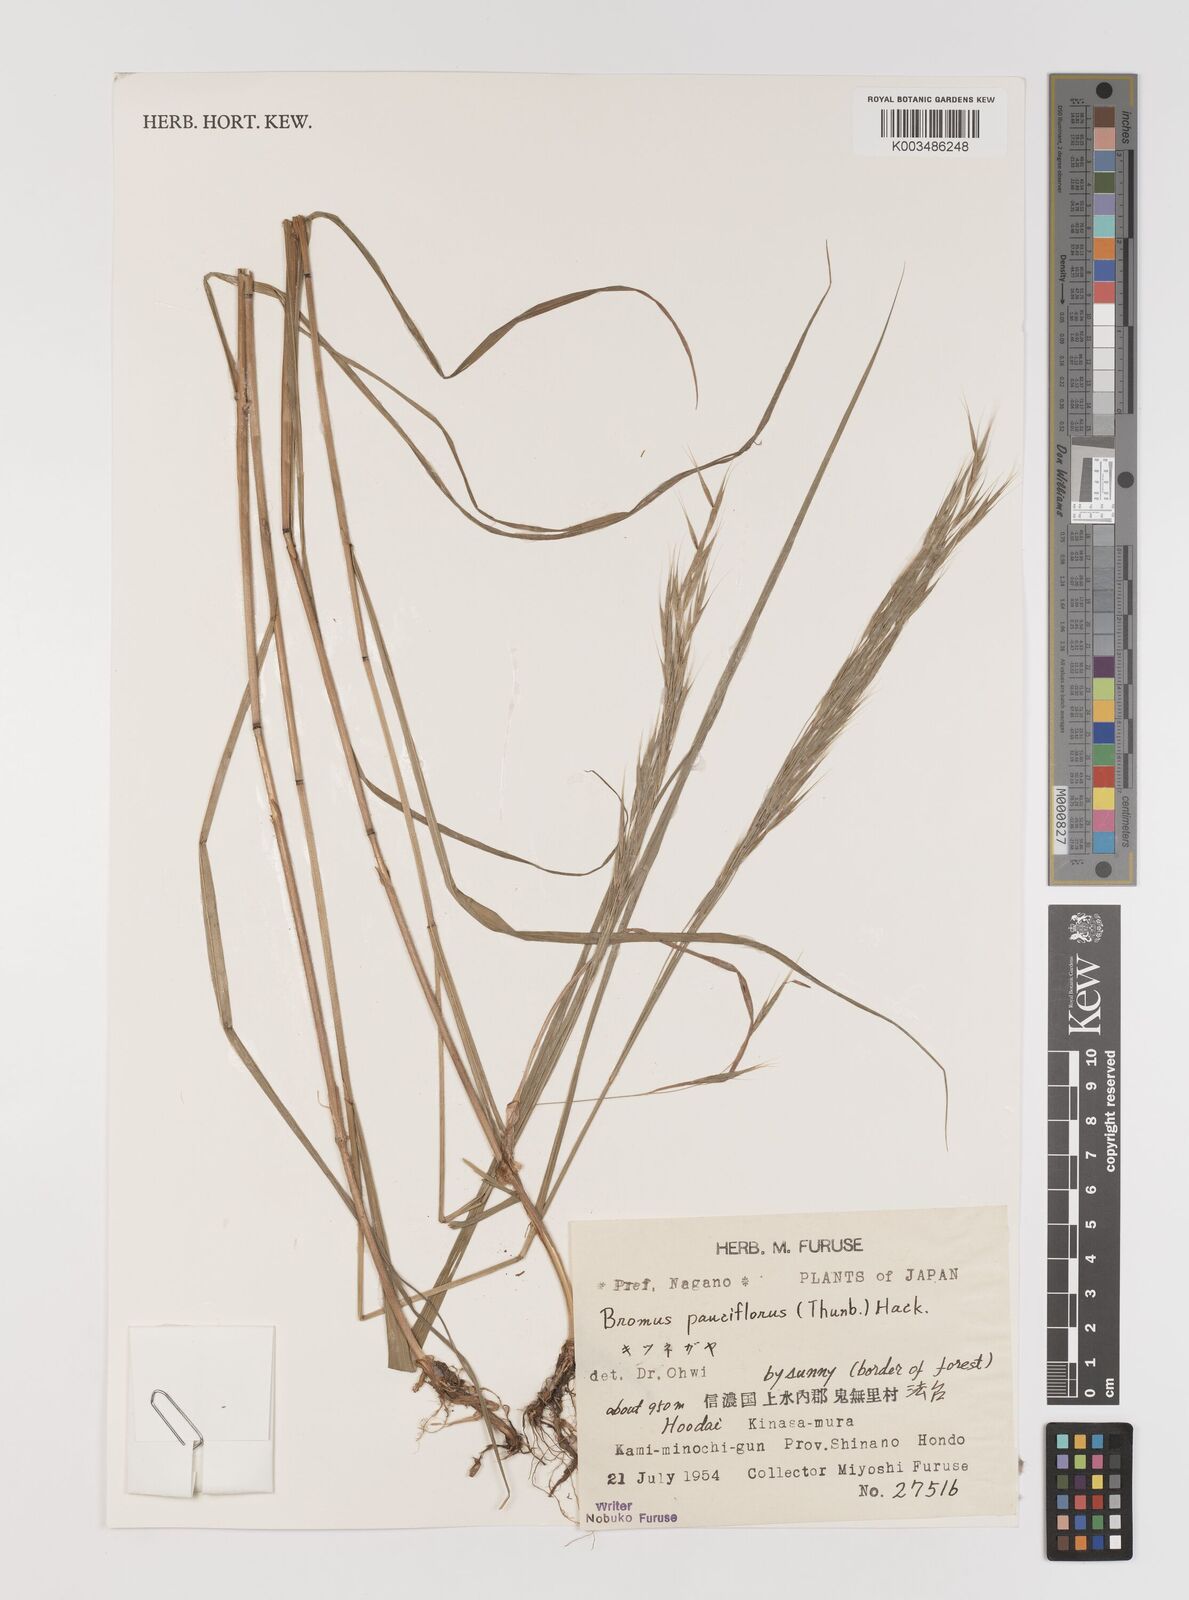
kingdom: Plantae
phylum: Tracheophyta
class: Liliopsida
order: Poales
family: Poaceae
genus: Bromus
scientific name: Bromus remotiflorus
